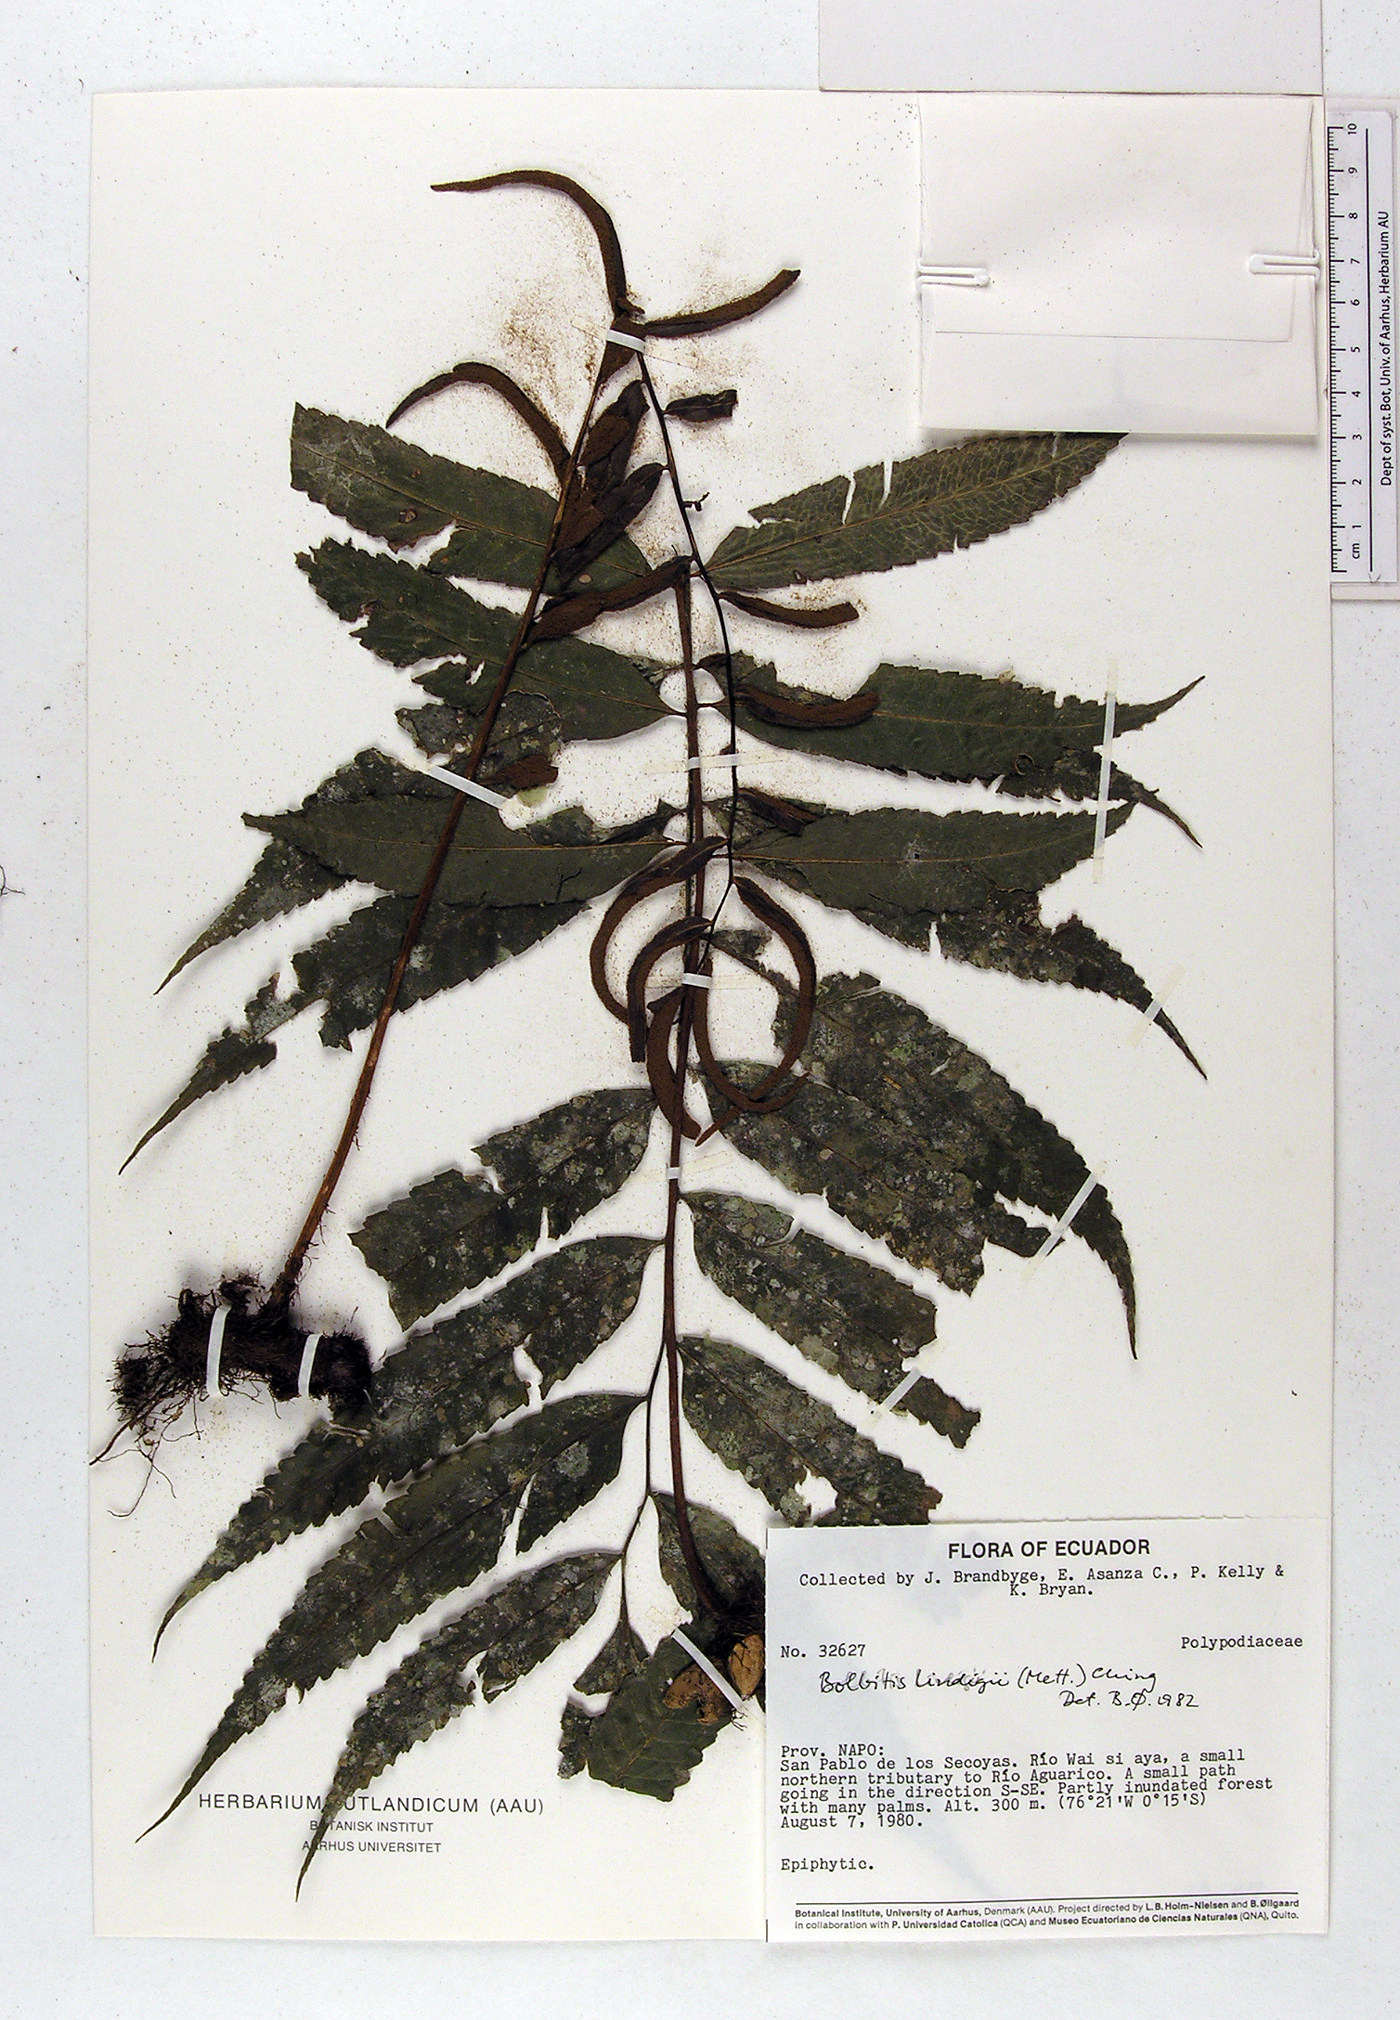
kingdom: Plantae
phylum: Tracheophyta
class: Polypodiopsida
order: Polypodiales
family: Dryopteridaceae
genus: Mickelia
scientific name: Mickelia lindigii
